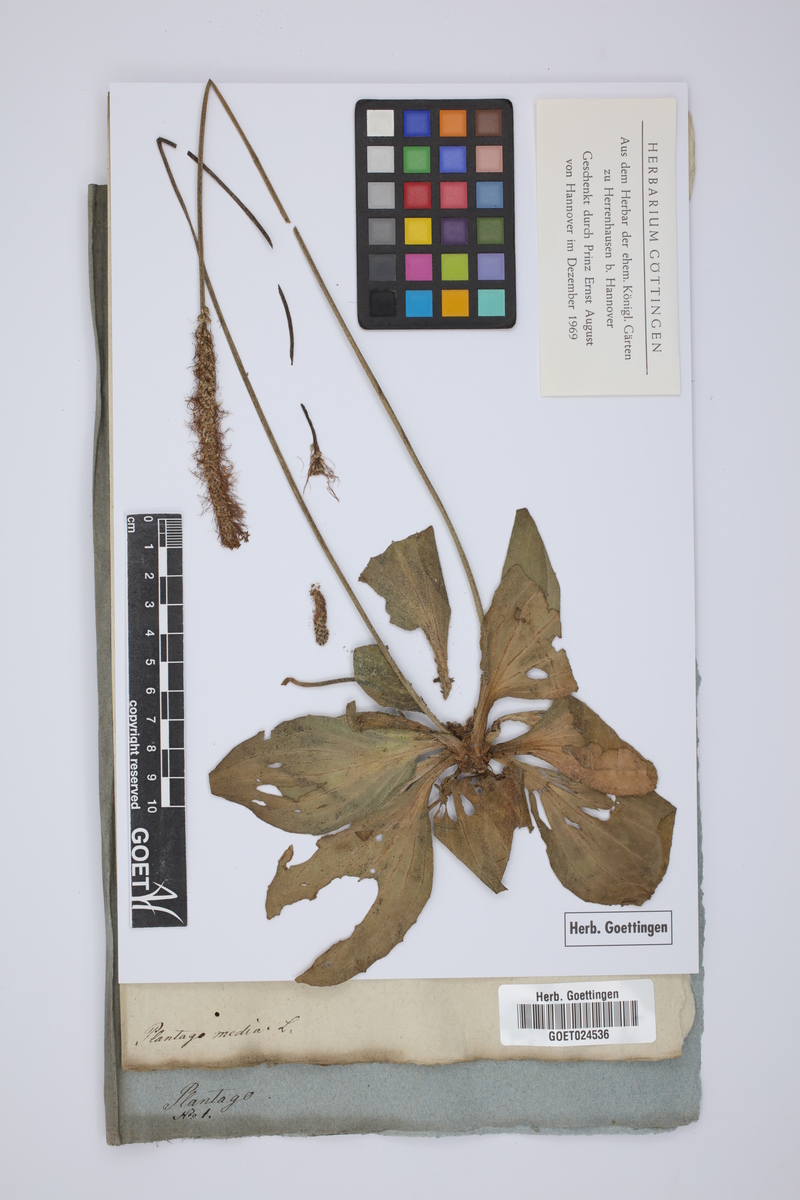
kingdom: Plantae
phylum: Tracheophyta
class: Magnoliopsida
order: Lamiales
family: Plantaginaceae
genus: Plantago
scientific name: Plantago media
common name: Hoary plantain
